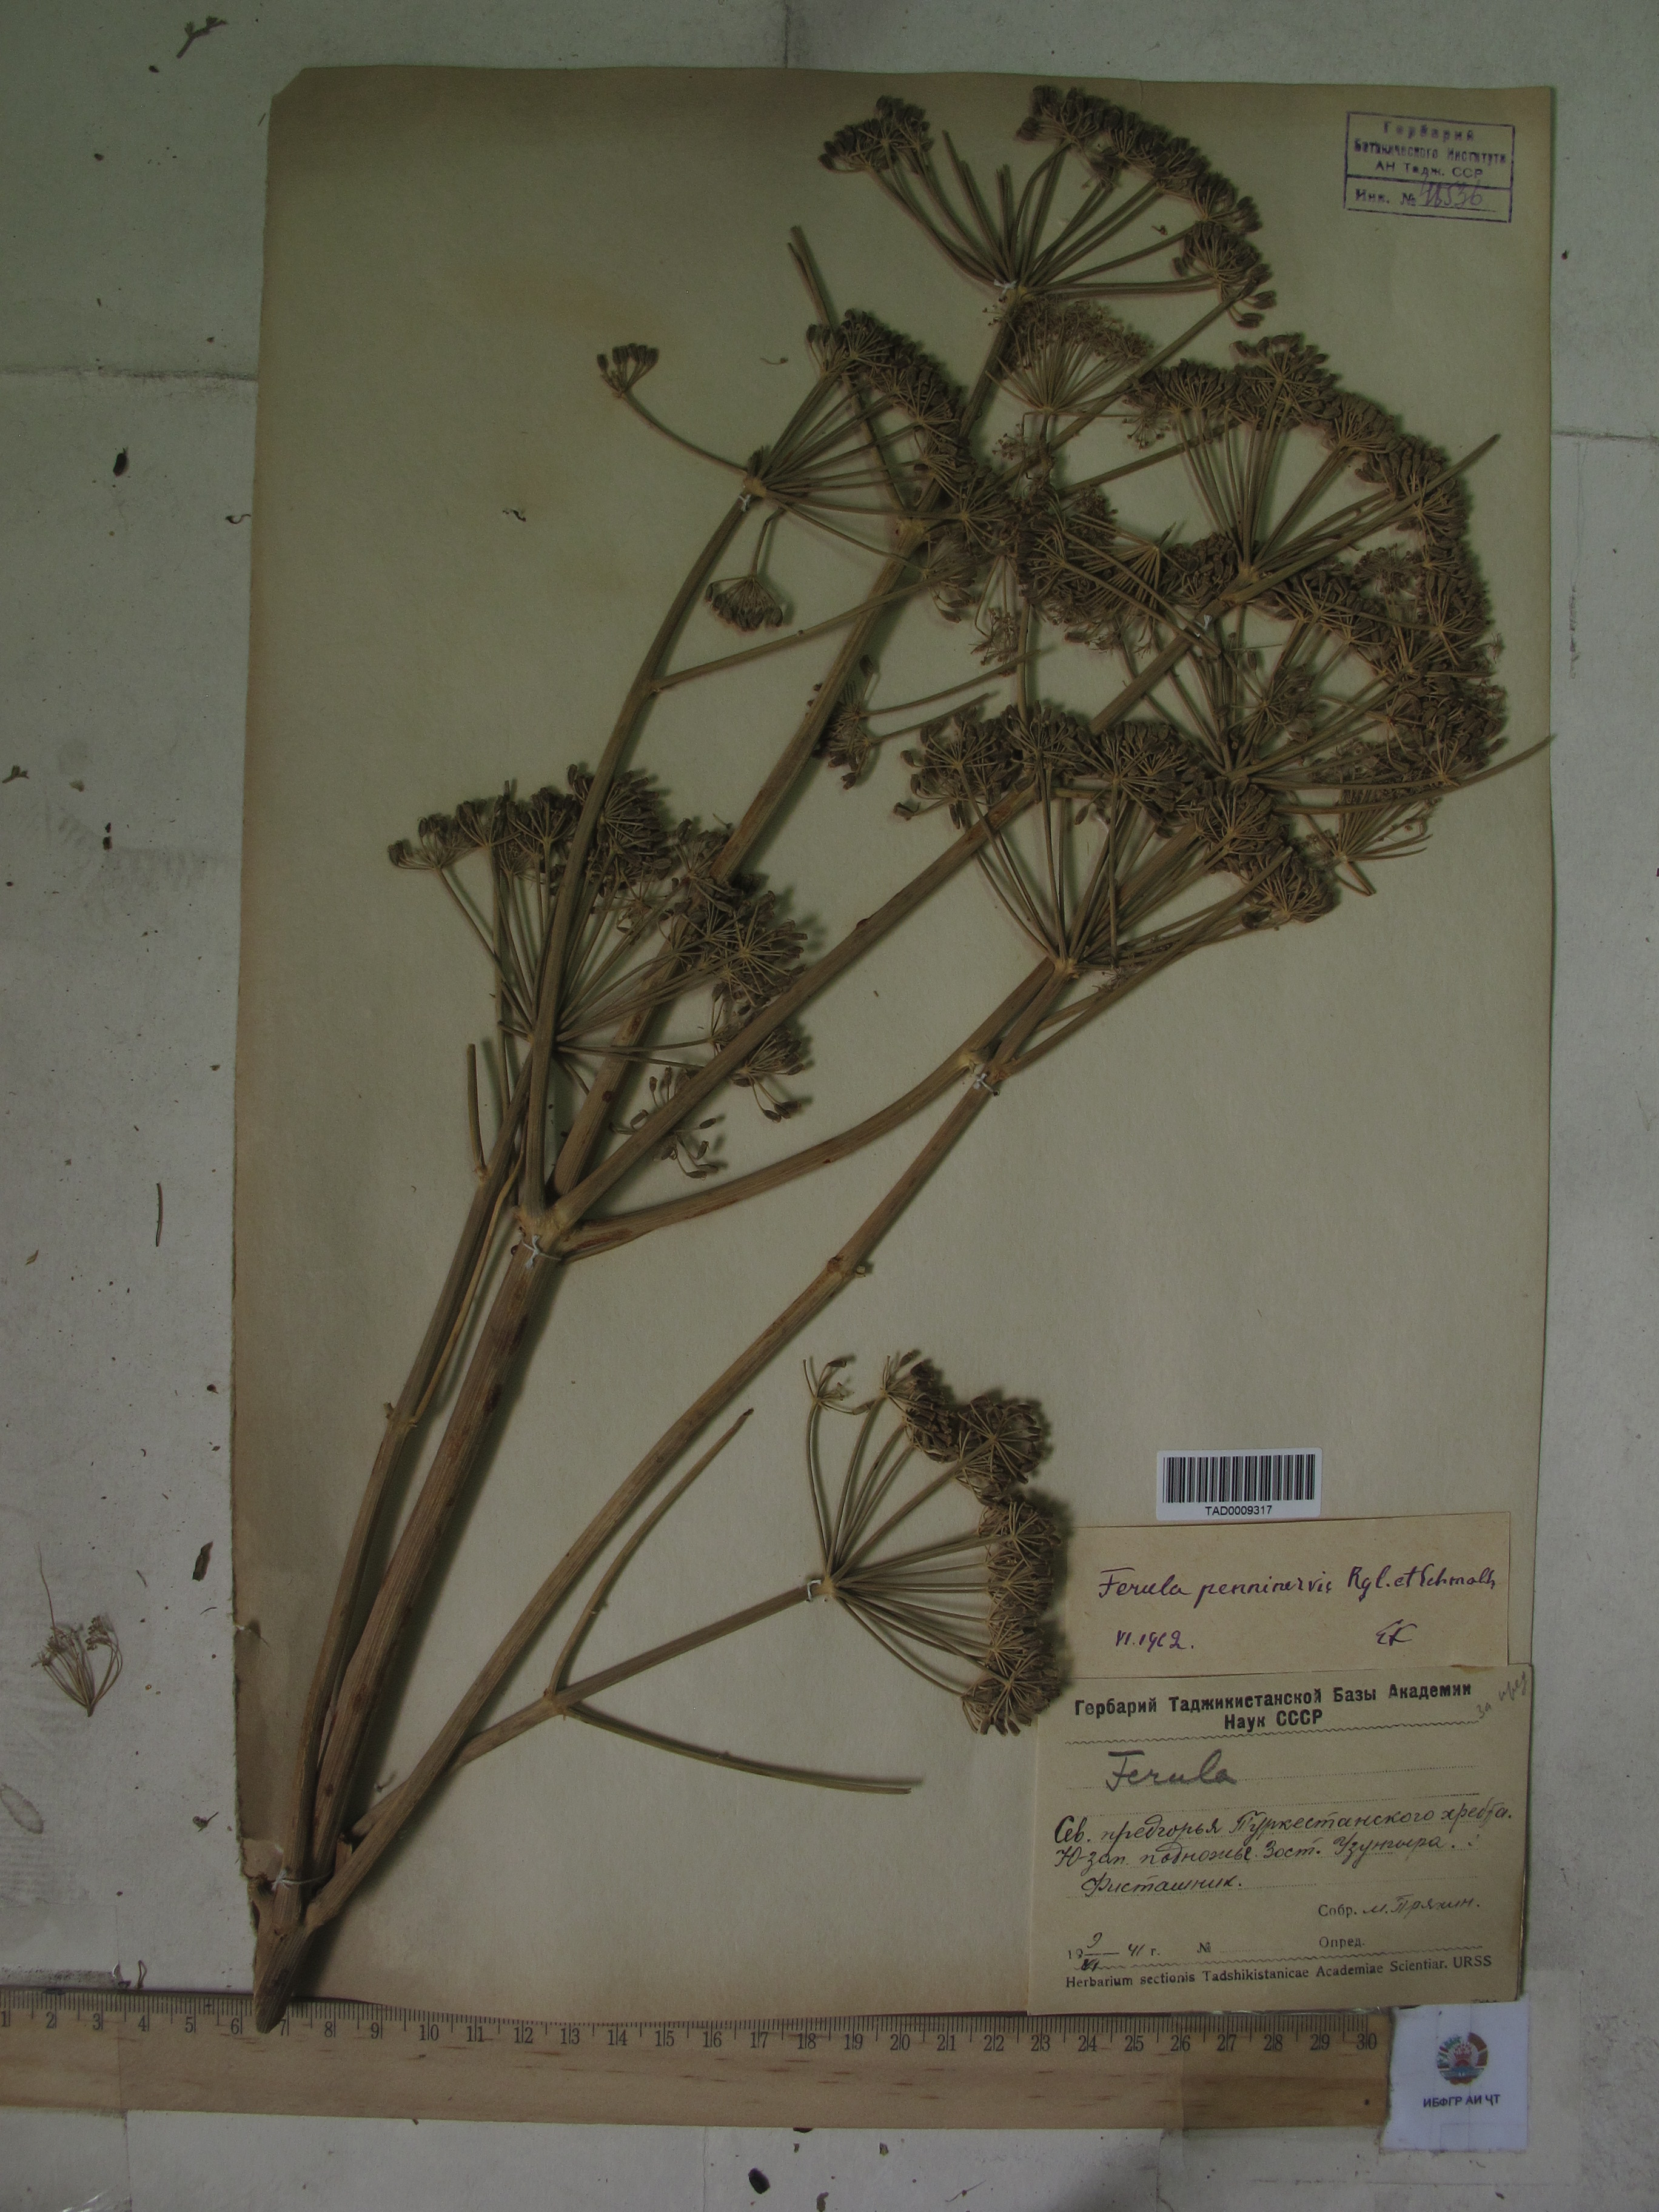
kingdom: Plantae
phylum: Tracheophyta
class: Magnoliopsida
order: Apiales
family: Apiaceae
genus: Ferula
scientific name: Ferula penninervis
